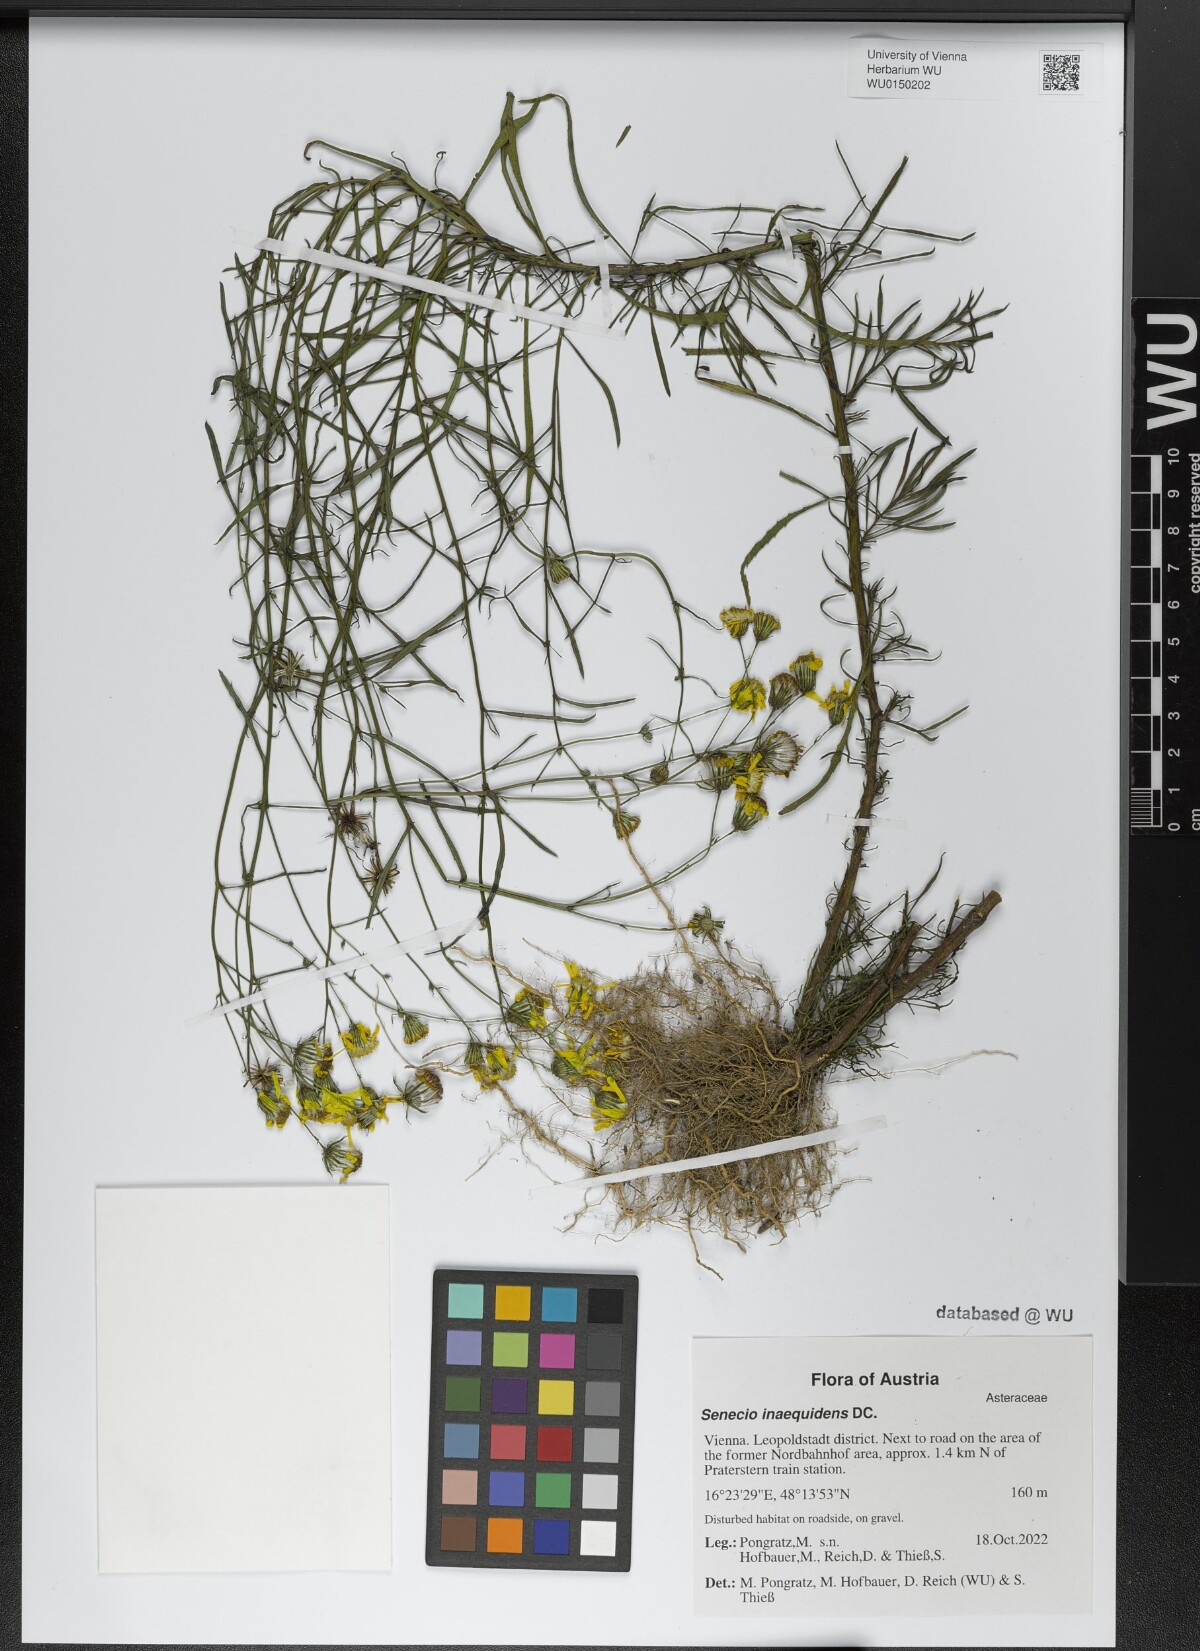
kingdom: Plantae
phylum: Tracheophyta
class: Magnoliopsida
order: Asterales
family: Asteraceae
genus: Senecio
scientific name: Senecio inaequidens
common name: Narrow-leaved ragwort
